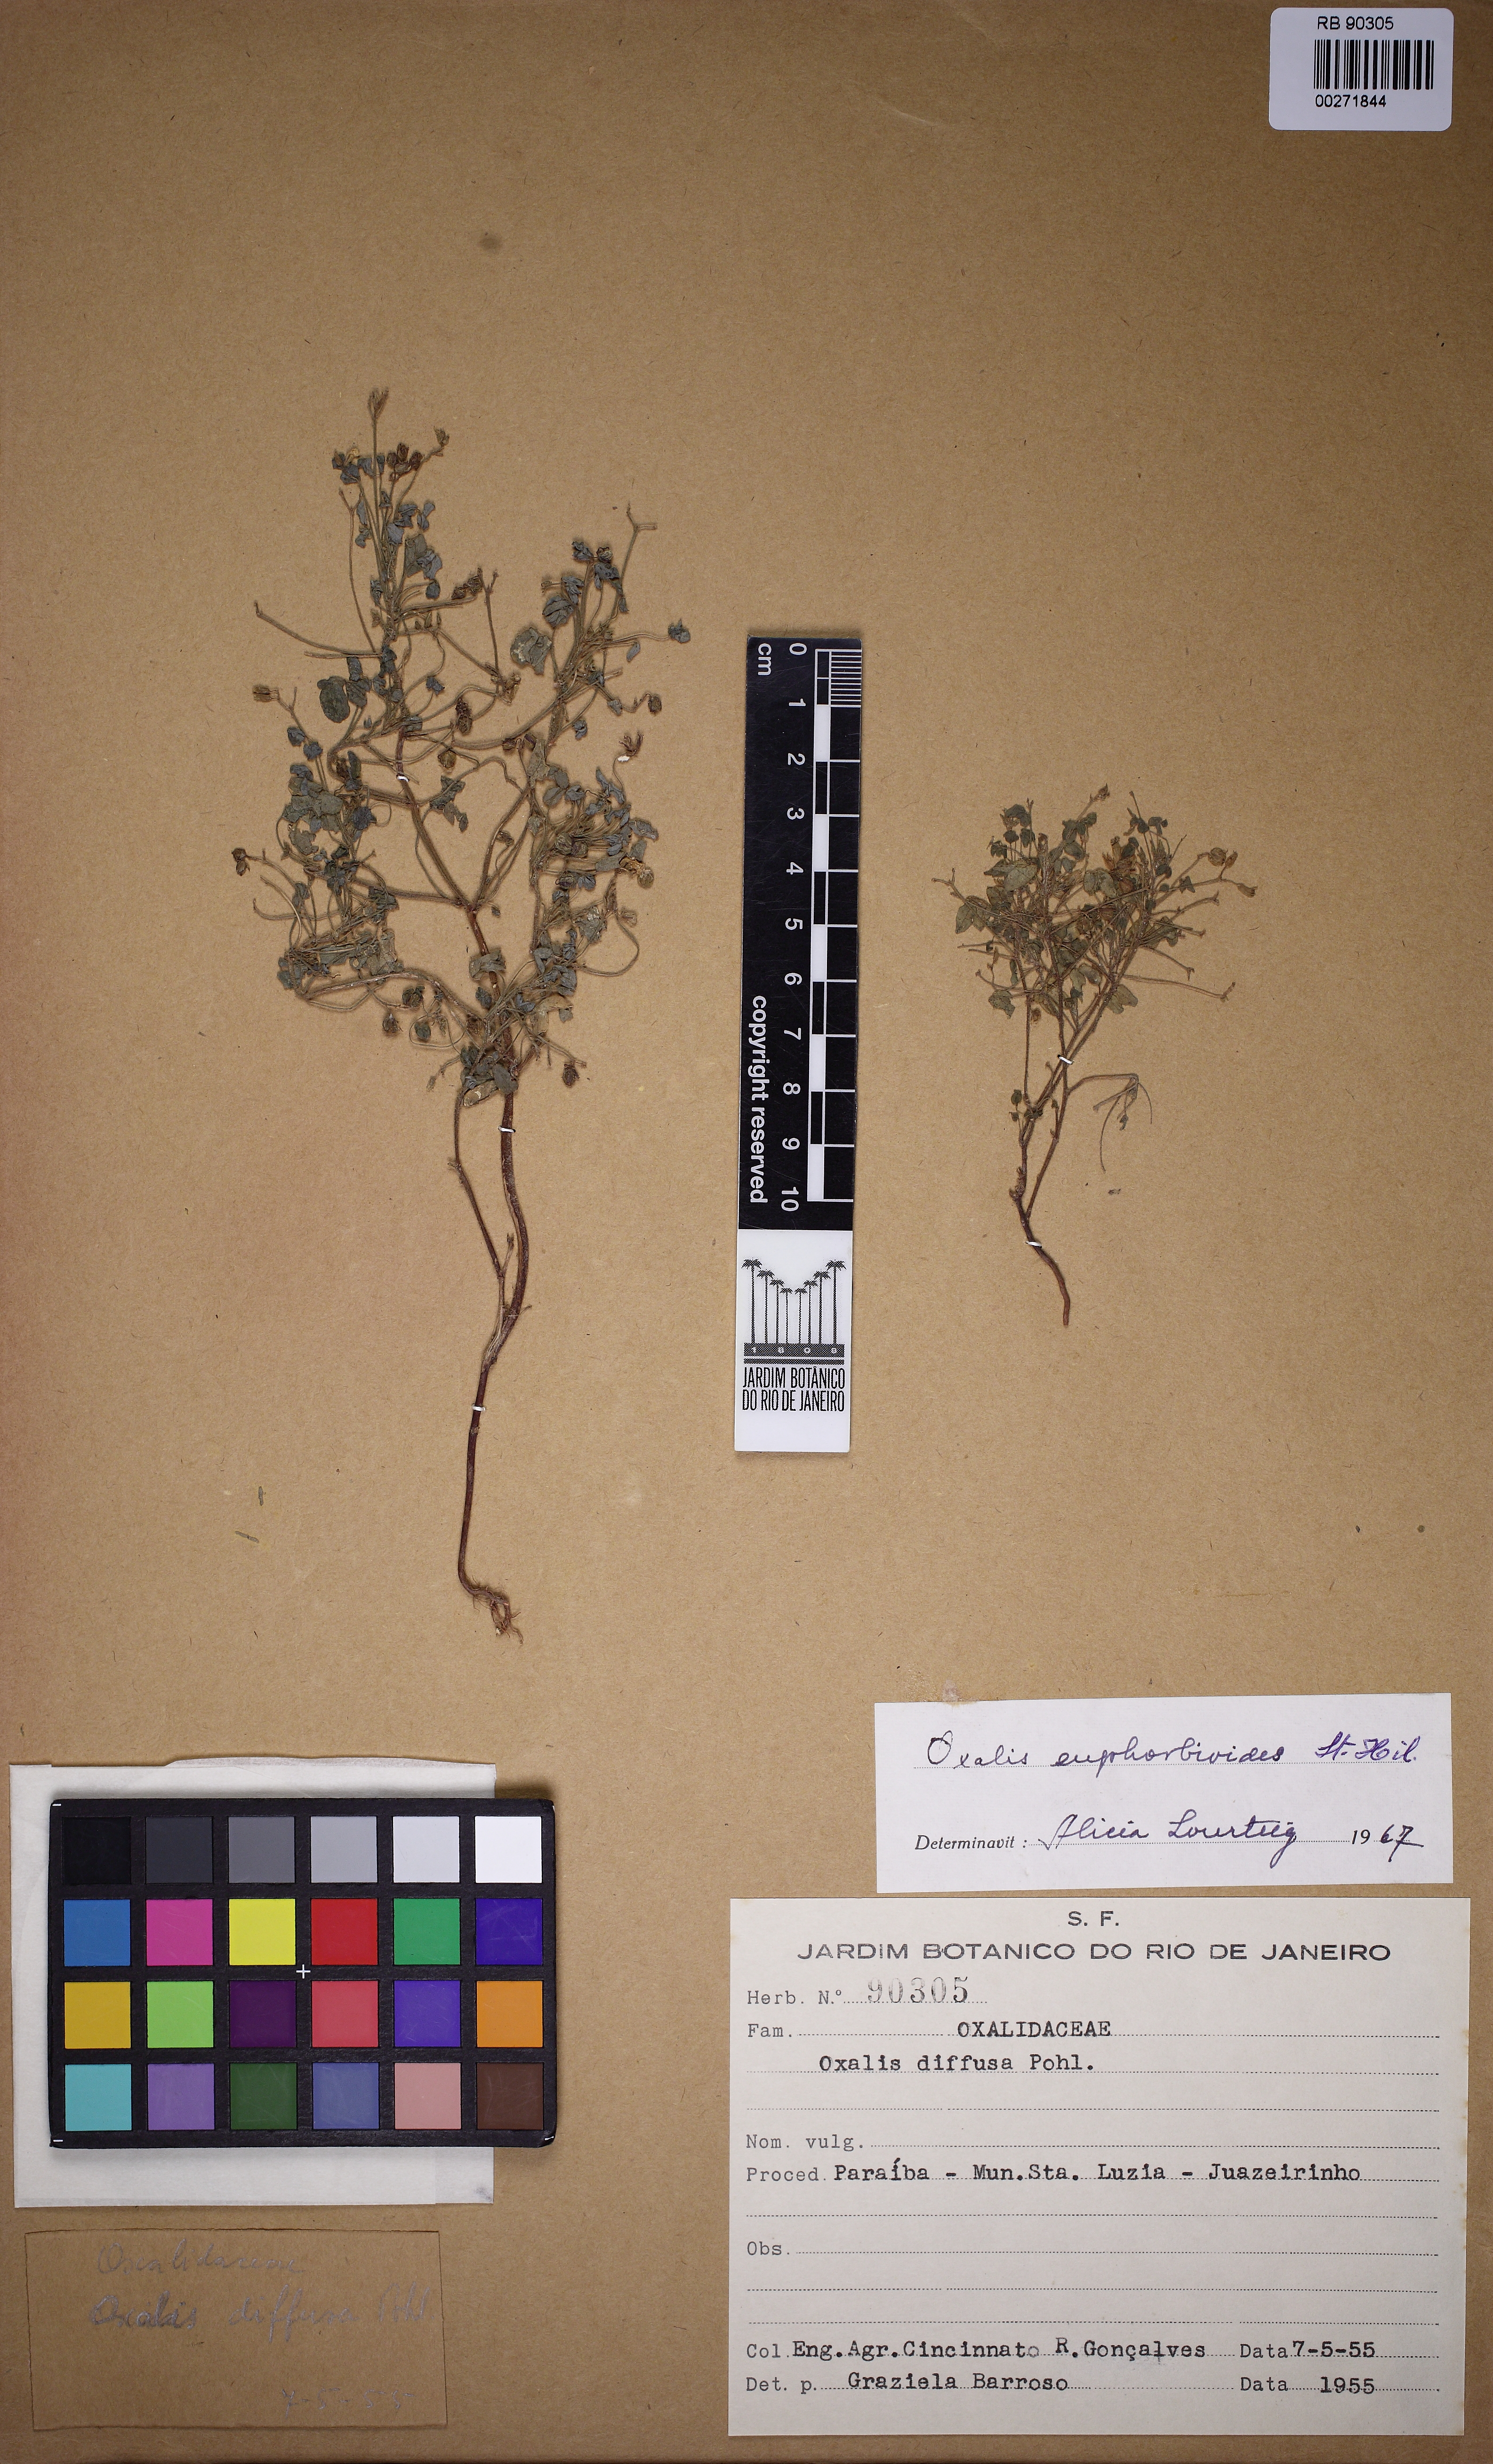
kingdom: Plantae
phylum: Tracheophyta
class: Magnoliopsida
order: Oxalidales
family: Oxalidaceae
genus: Oxalis
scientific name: Oxalis divaricata
